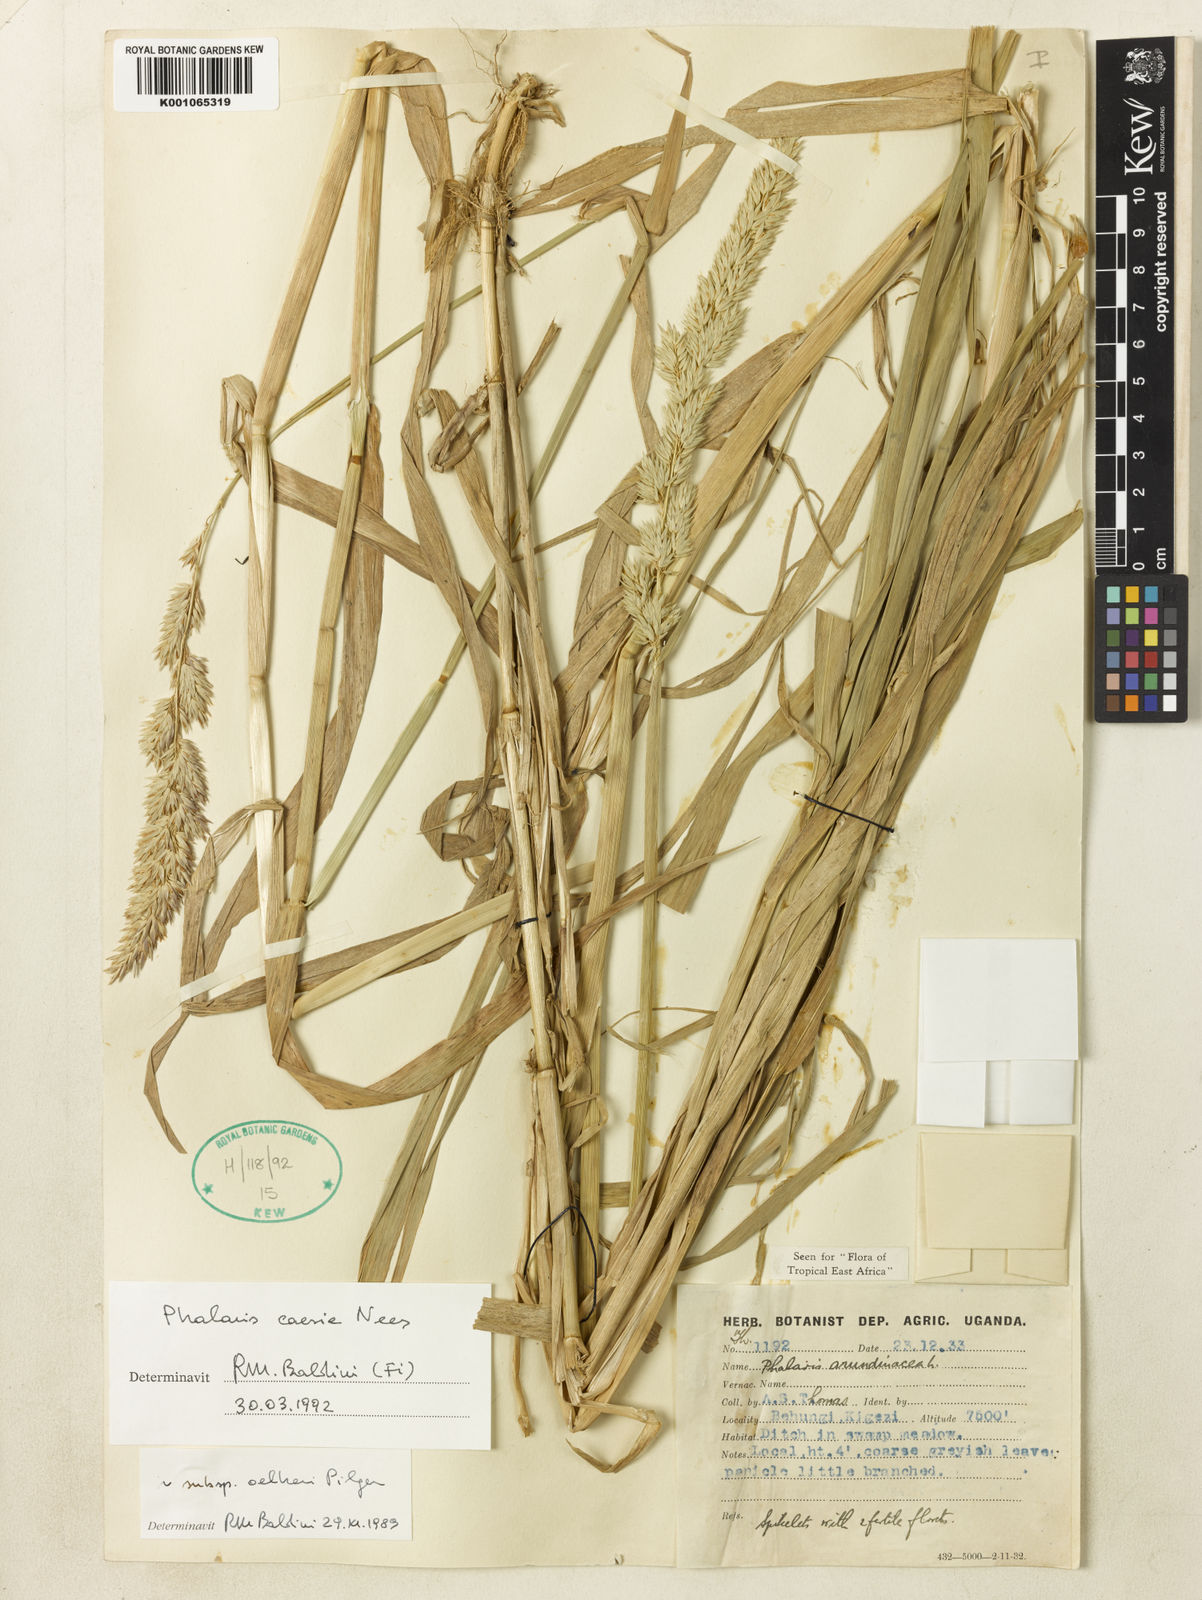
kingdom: Plantae
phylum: Tracheophyta
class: Liliopsida
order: Poales
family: Poaceae
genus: Phalaris
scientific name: Phalaris arundinacea
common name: Reed canary-grass
